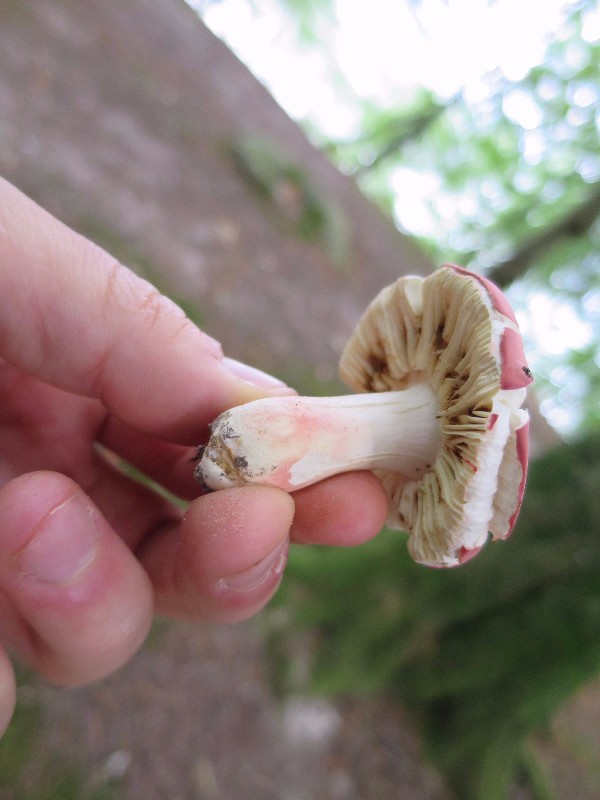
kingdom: Fungi
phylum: Basidiomycota
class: Agaricomycetes
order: Russulales
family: Russulaceae
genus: Russula
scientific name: Russula rosea
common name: fastkødet skørhat
